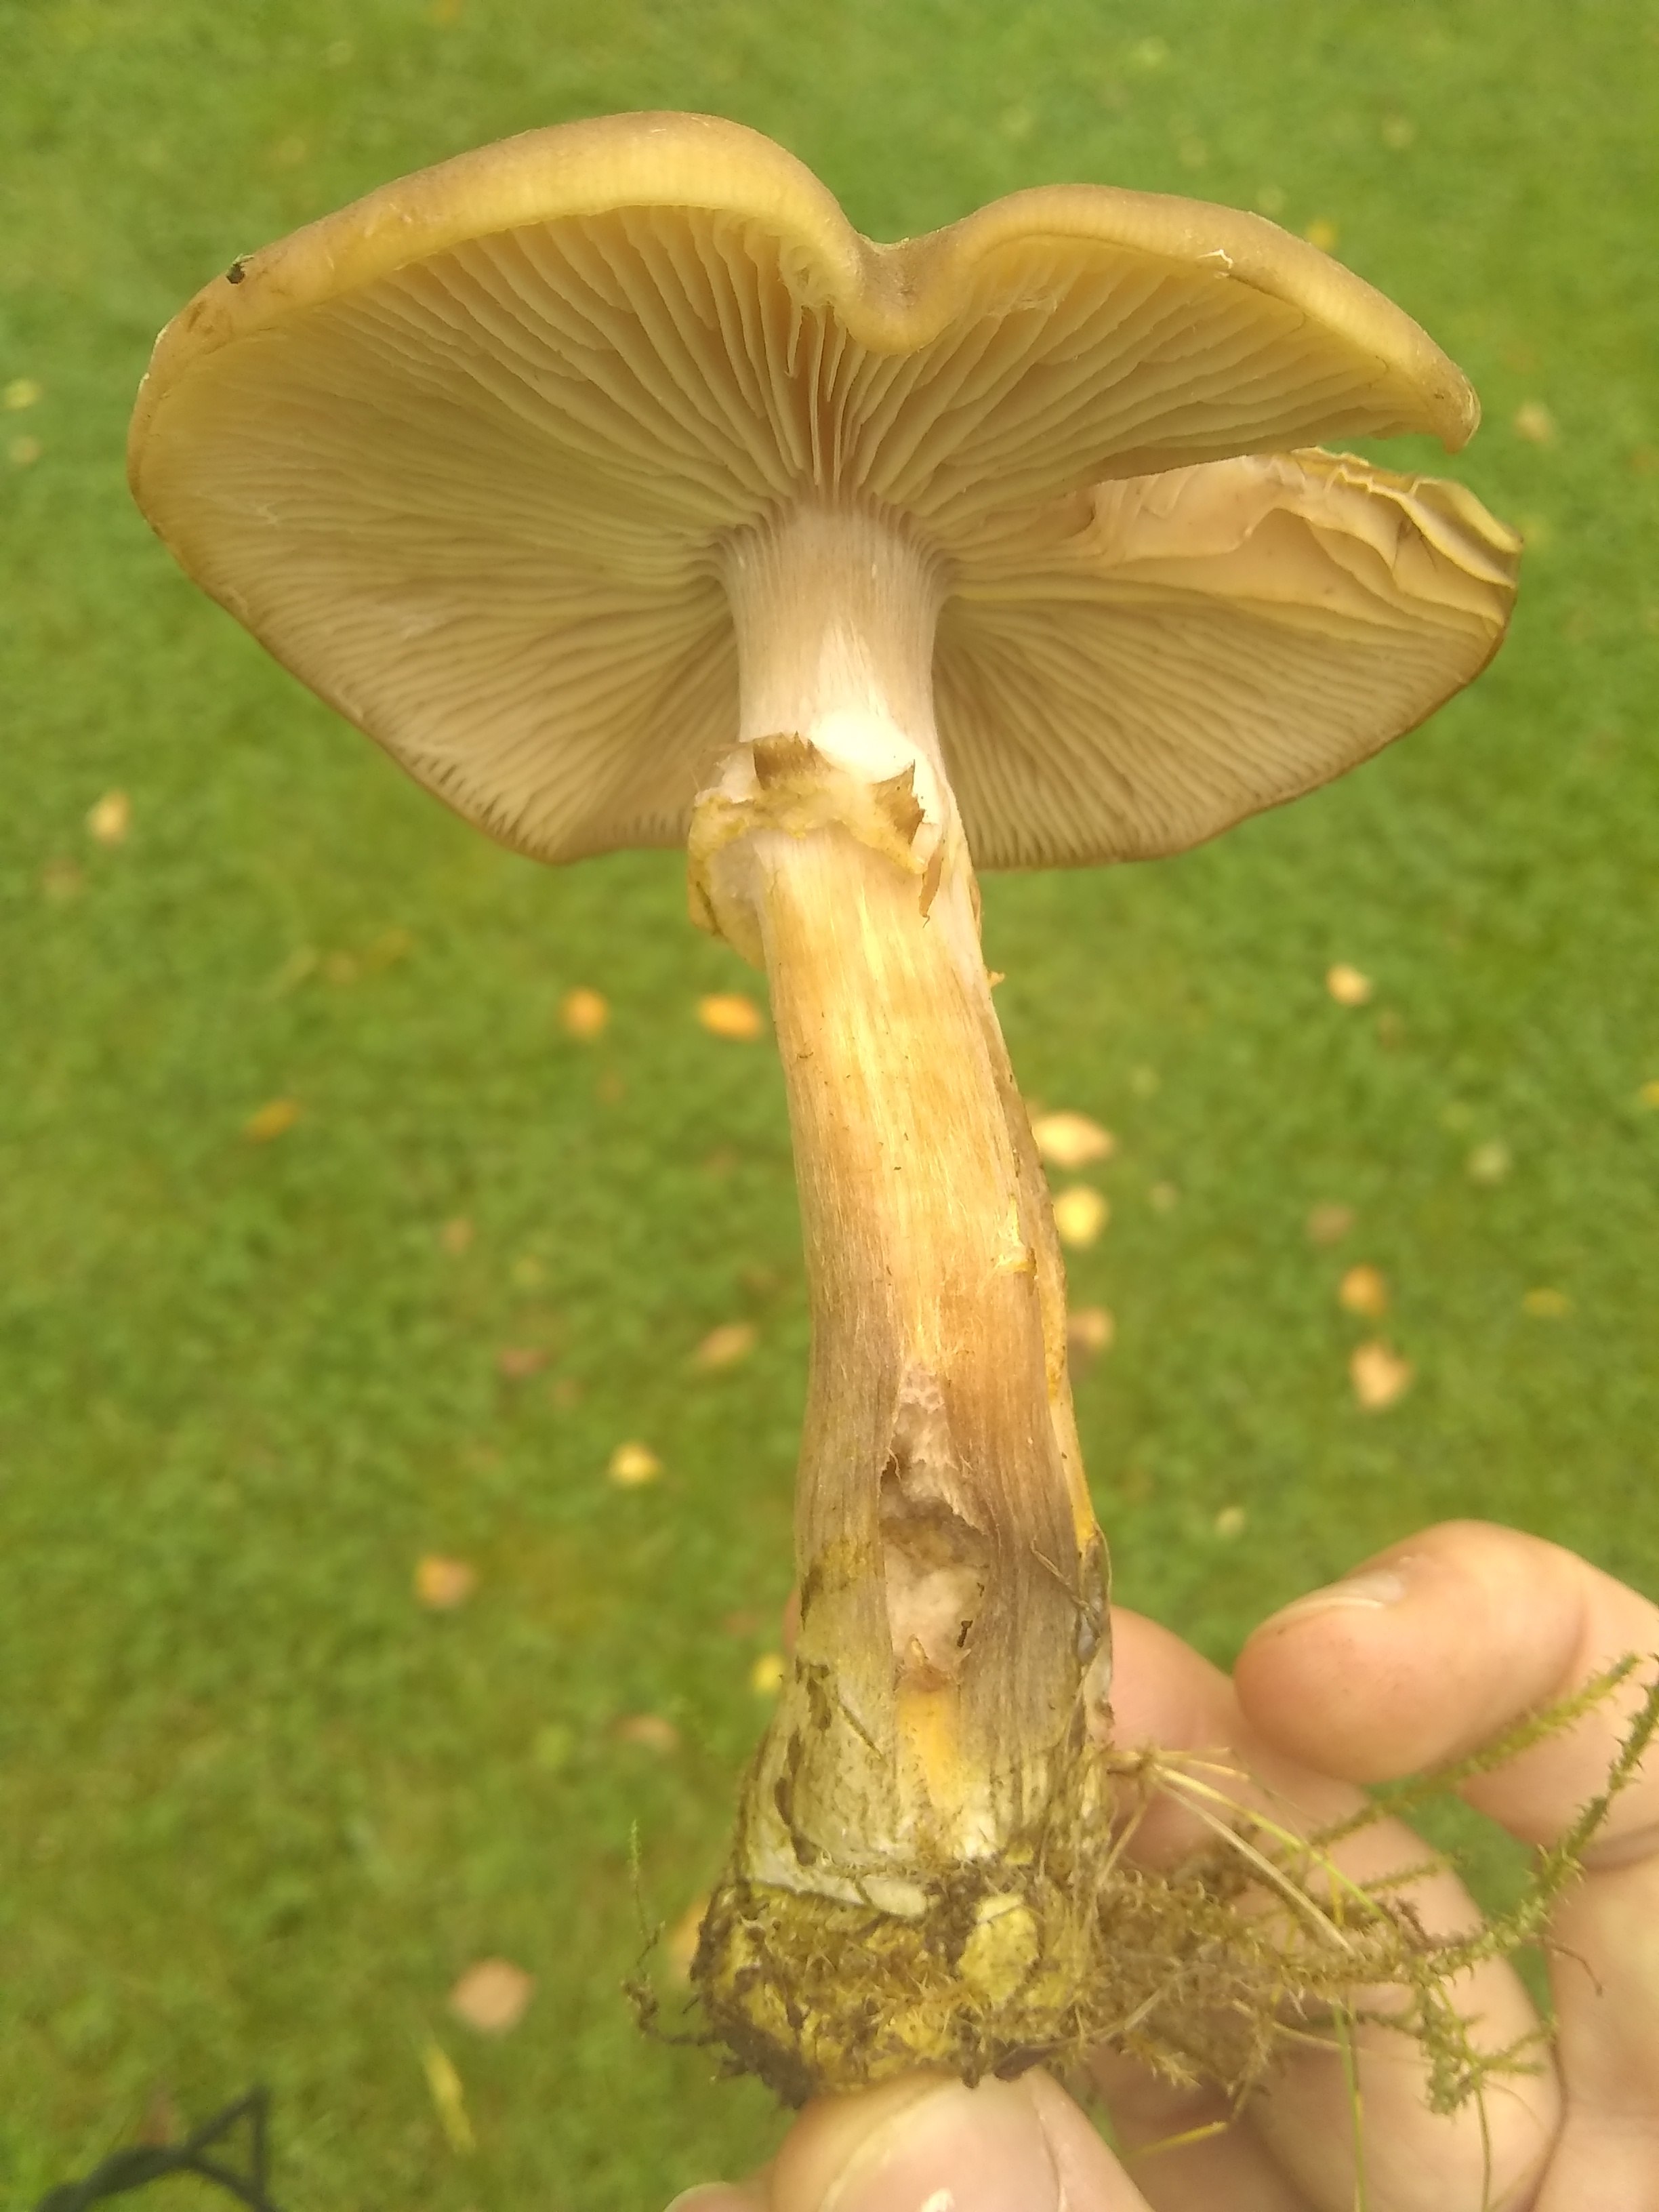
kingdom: Fungi
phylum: Basidiomycota
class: Agaricomycetes
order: Agaricales
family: Physalacriaceae
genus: Armillaria
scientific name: Armillaria lutea
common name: køllestokket honningsvamp
